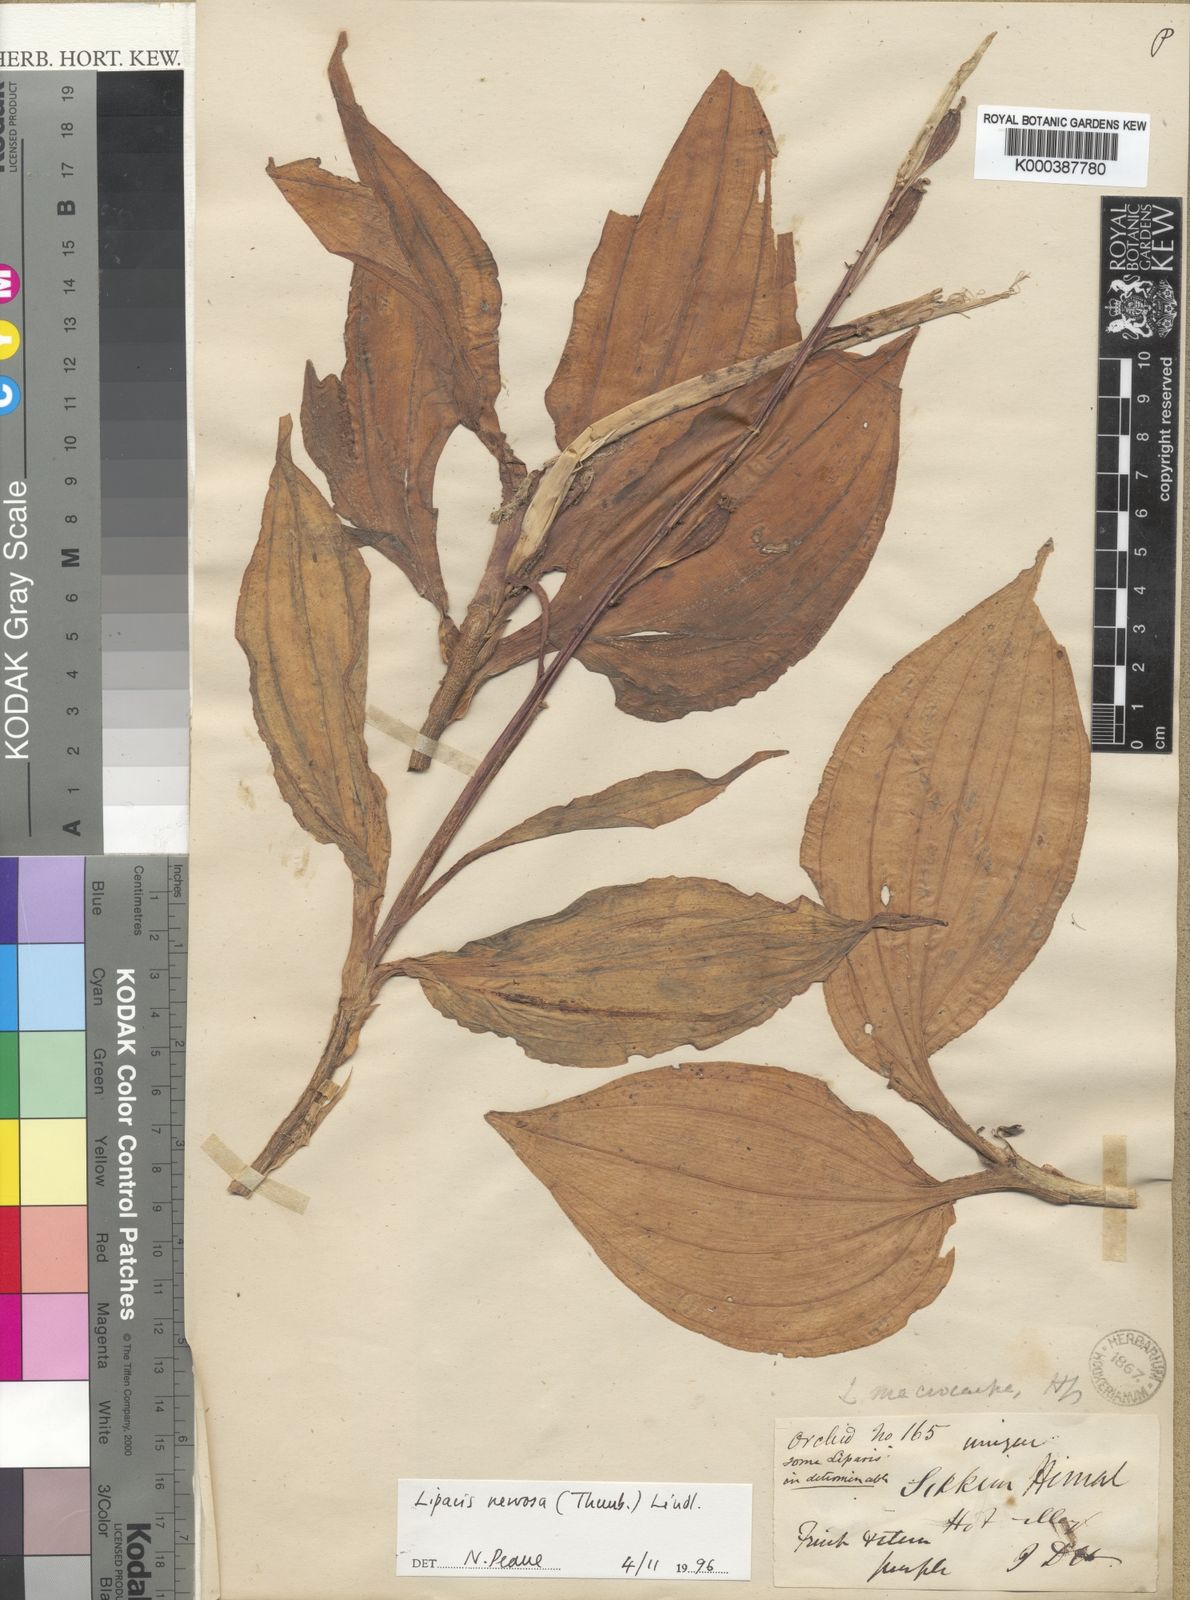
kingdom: Plantae
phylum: Tracheophyta
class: Liliopsida
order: Asparagales
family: Orchidaceae
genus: Liparis
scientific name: Liparis nervosa
